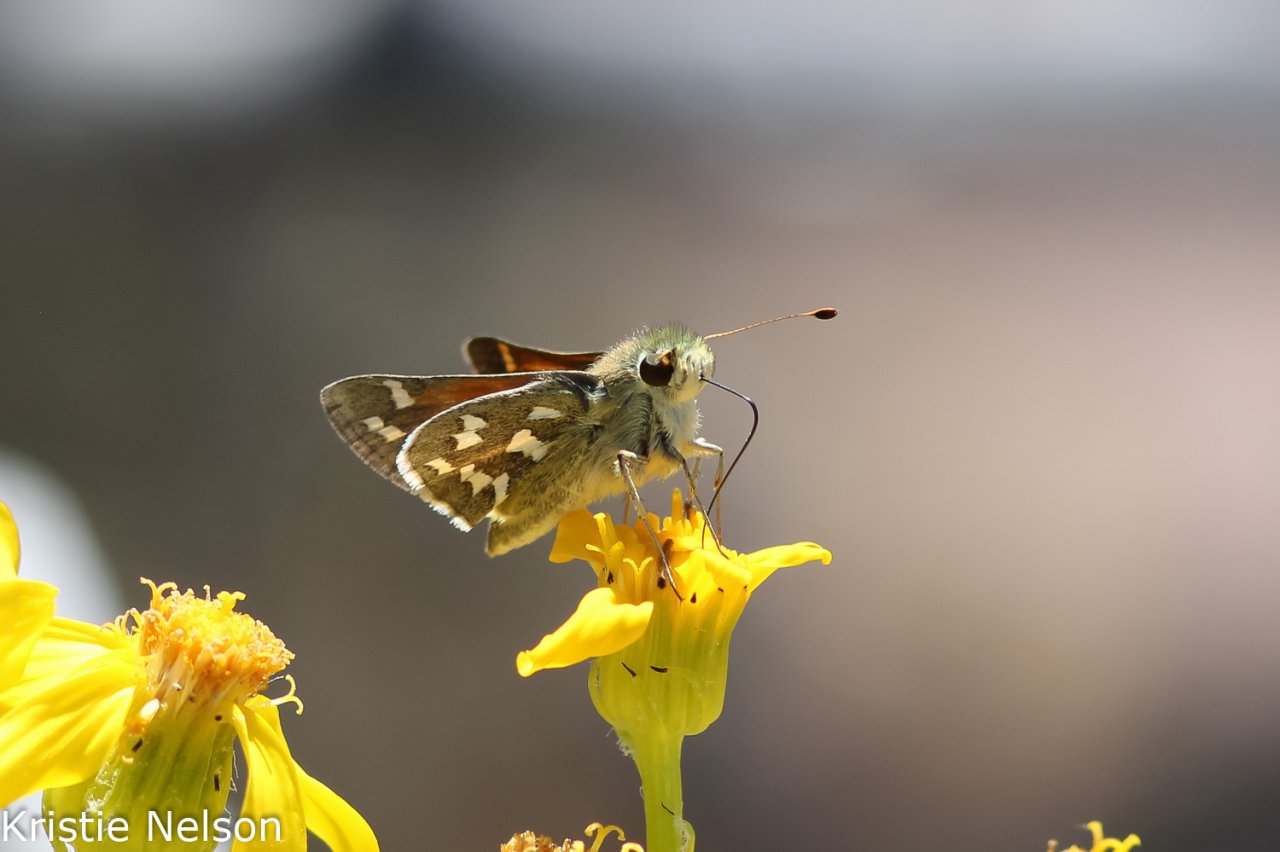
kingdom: Animalia
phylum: Arthropoda
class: Insecta
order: Lepidoptera
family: Hesperiidae
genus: Hesperia
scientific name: Hesperia nevada
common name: Nevada Skipper
